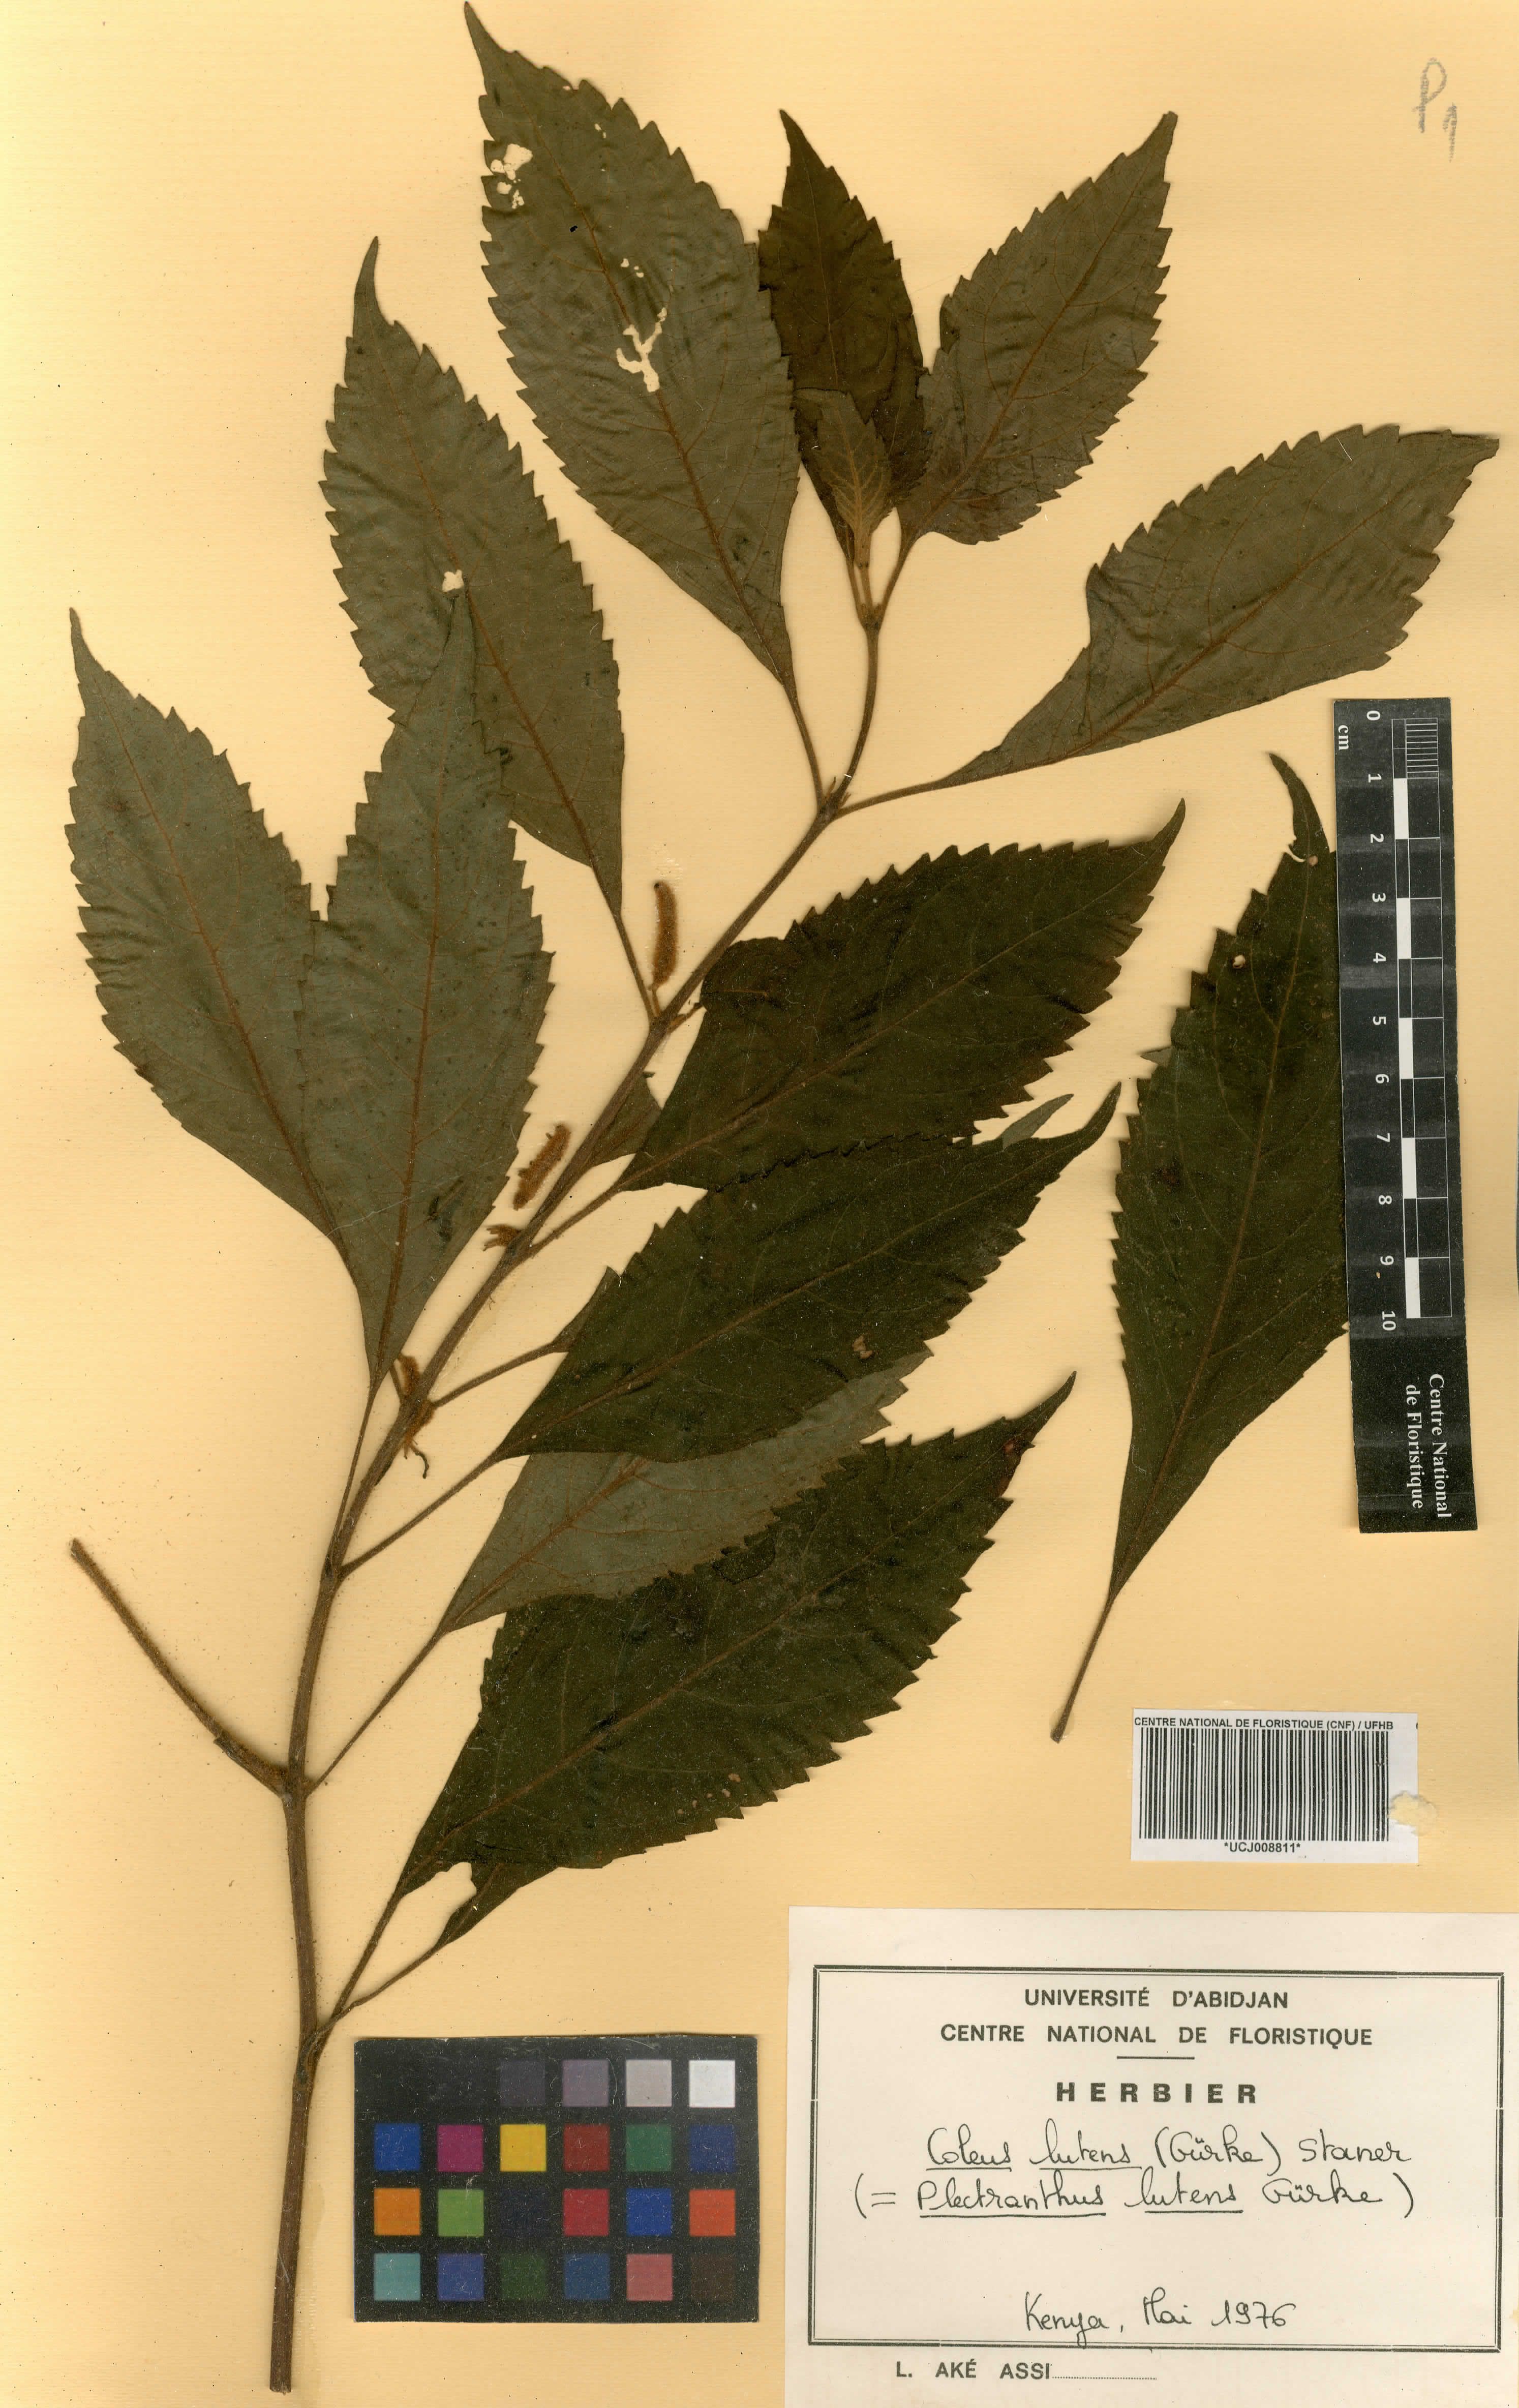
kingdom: Plantae
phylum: Tracheophyta
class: Magnoliopsida
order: Lamiales
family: Lamiaceae
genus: Coleus
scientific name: Coleus melleri
